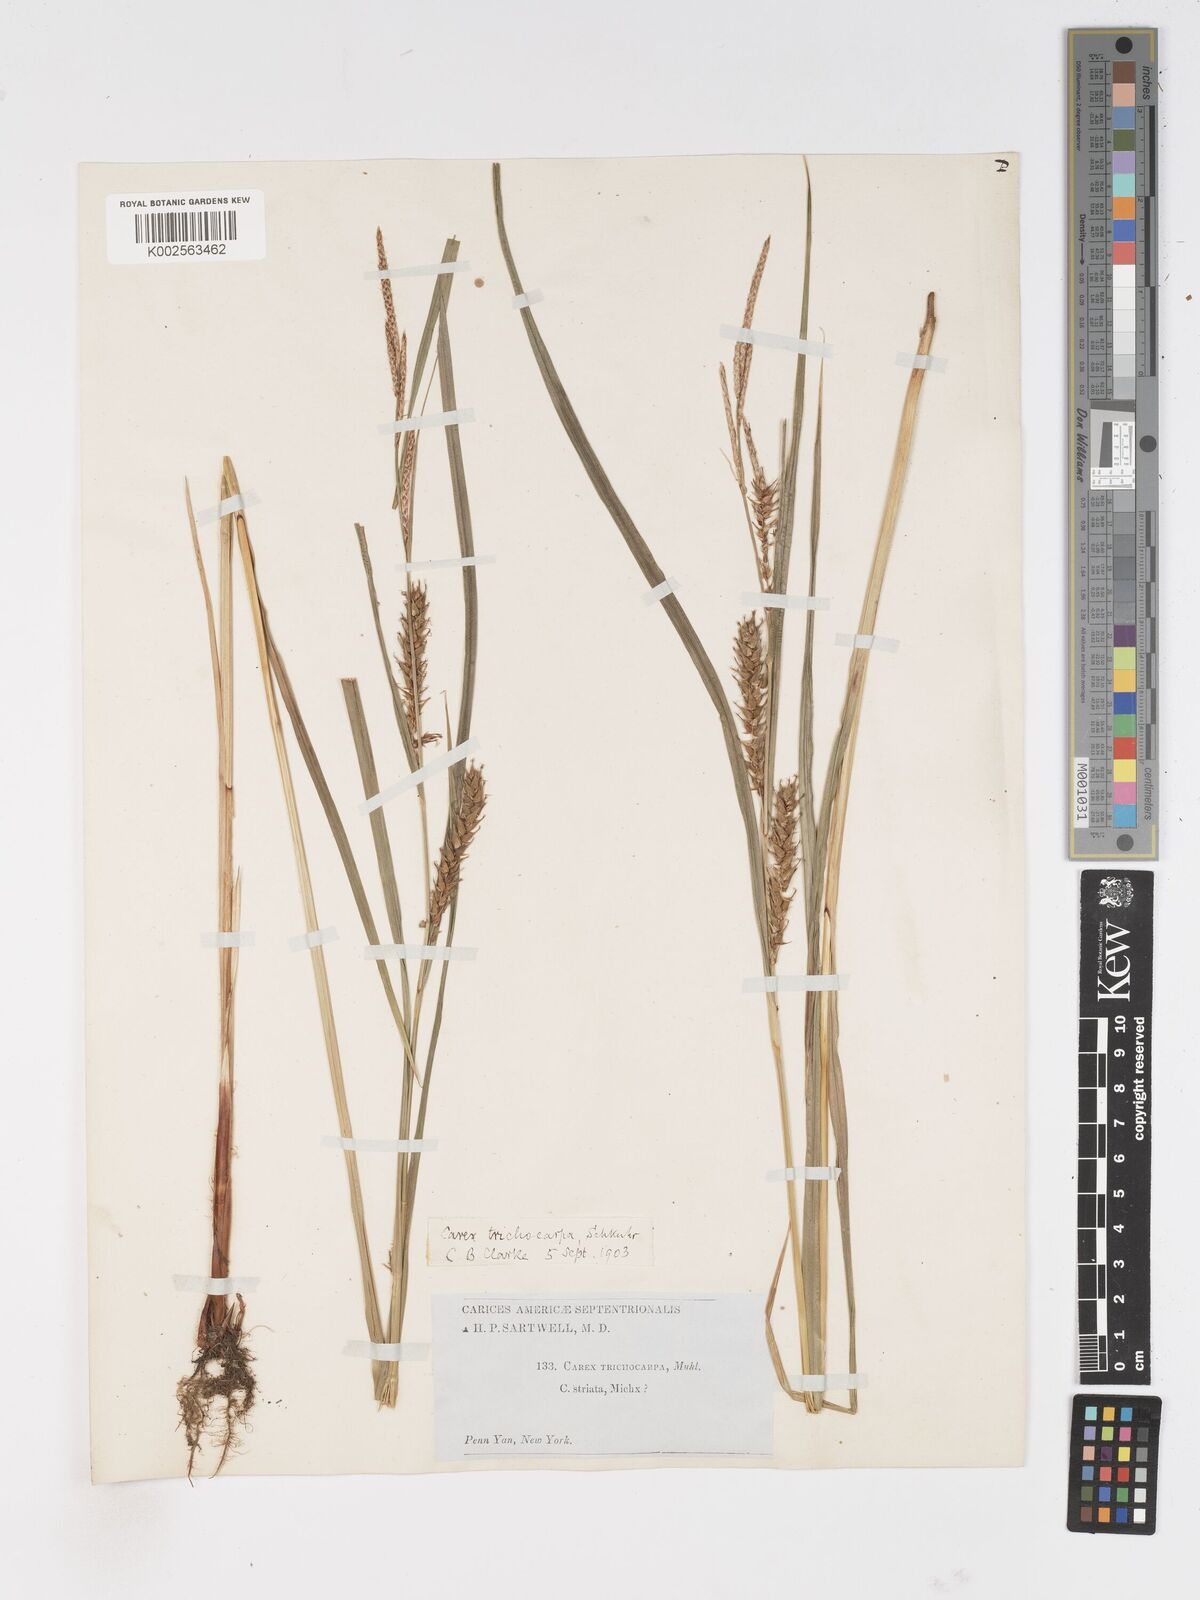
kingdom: Plantae
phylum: Tracheophyta
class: Liliopsida
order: Poales
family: Cyperaceae
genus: Carex
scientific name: Carex trichocarpa
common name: Hairy-fruited lake sedge
